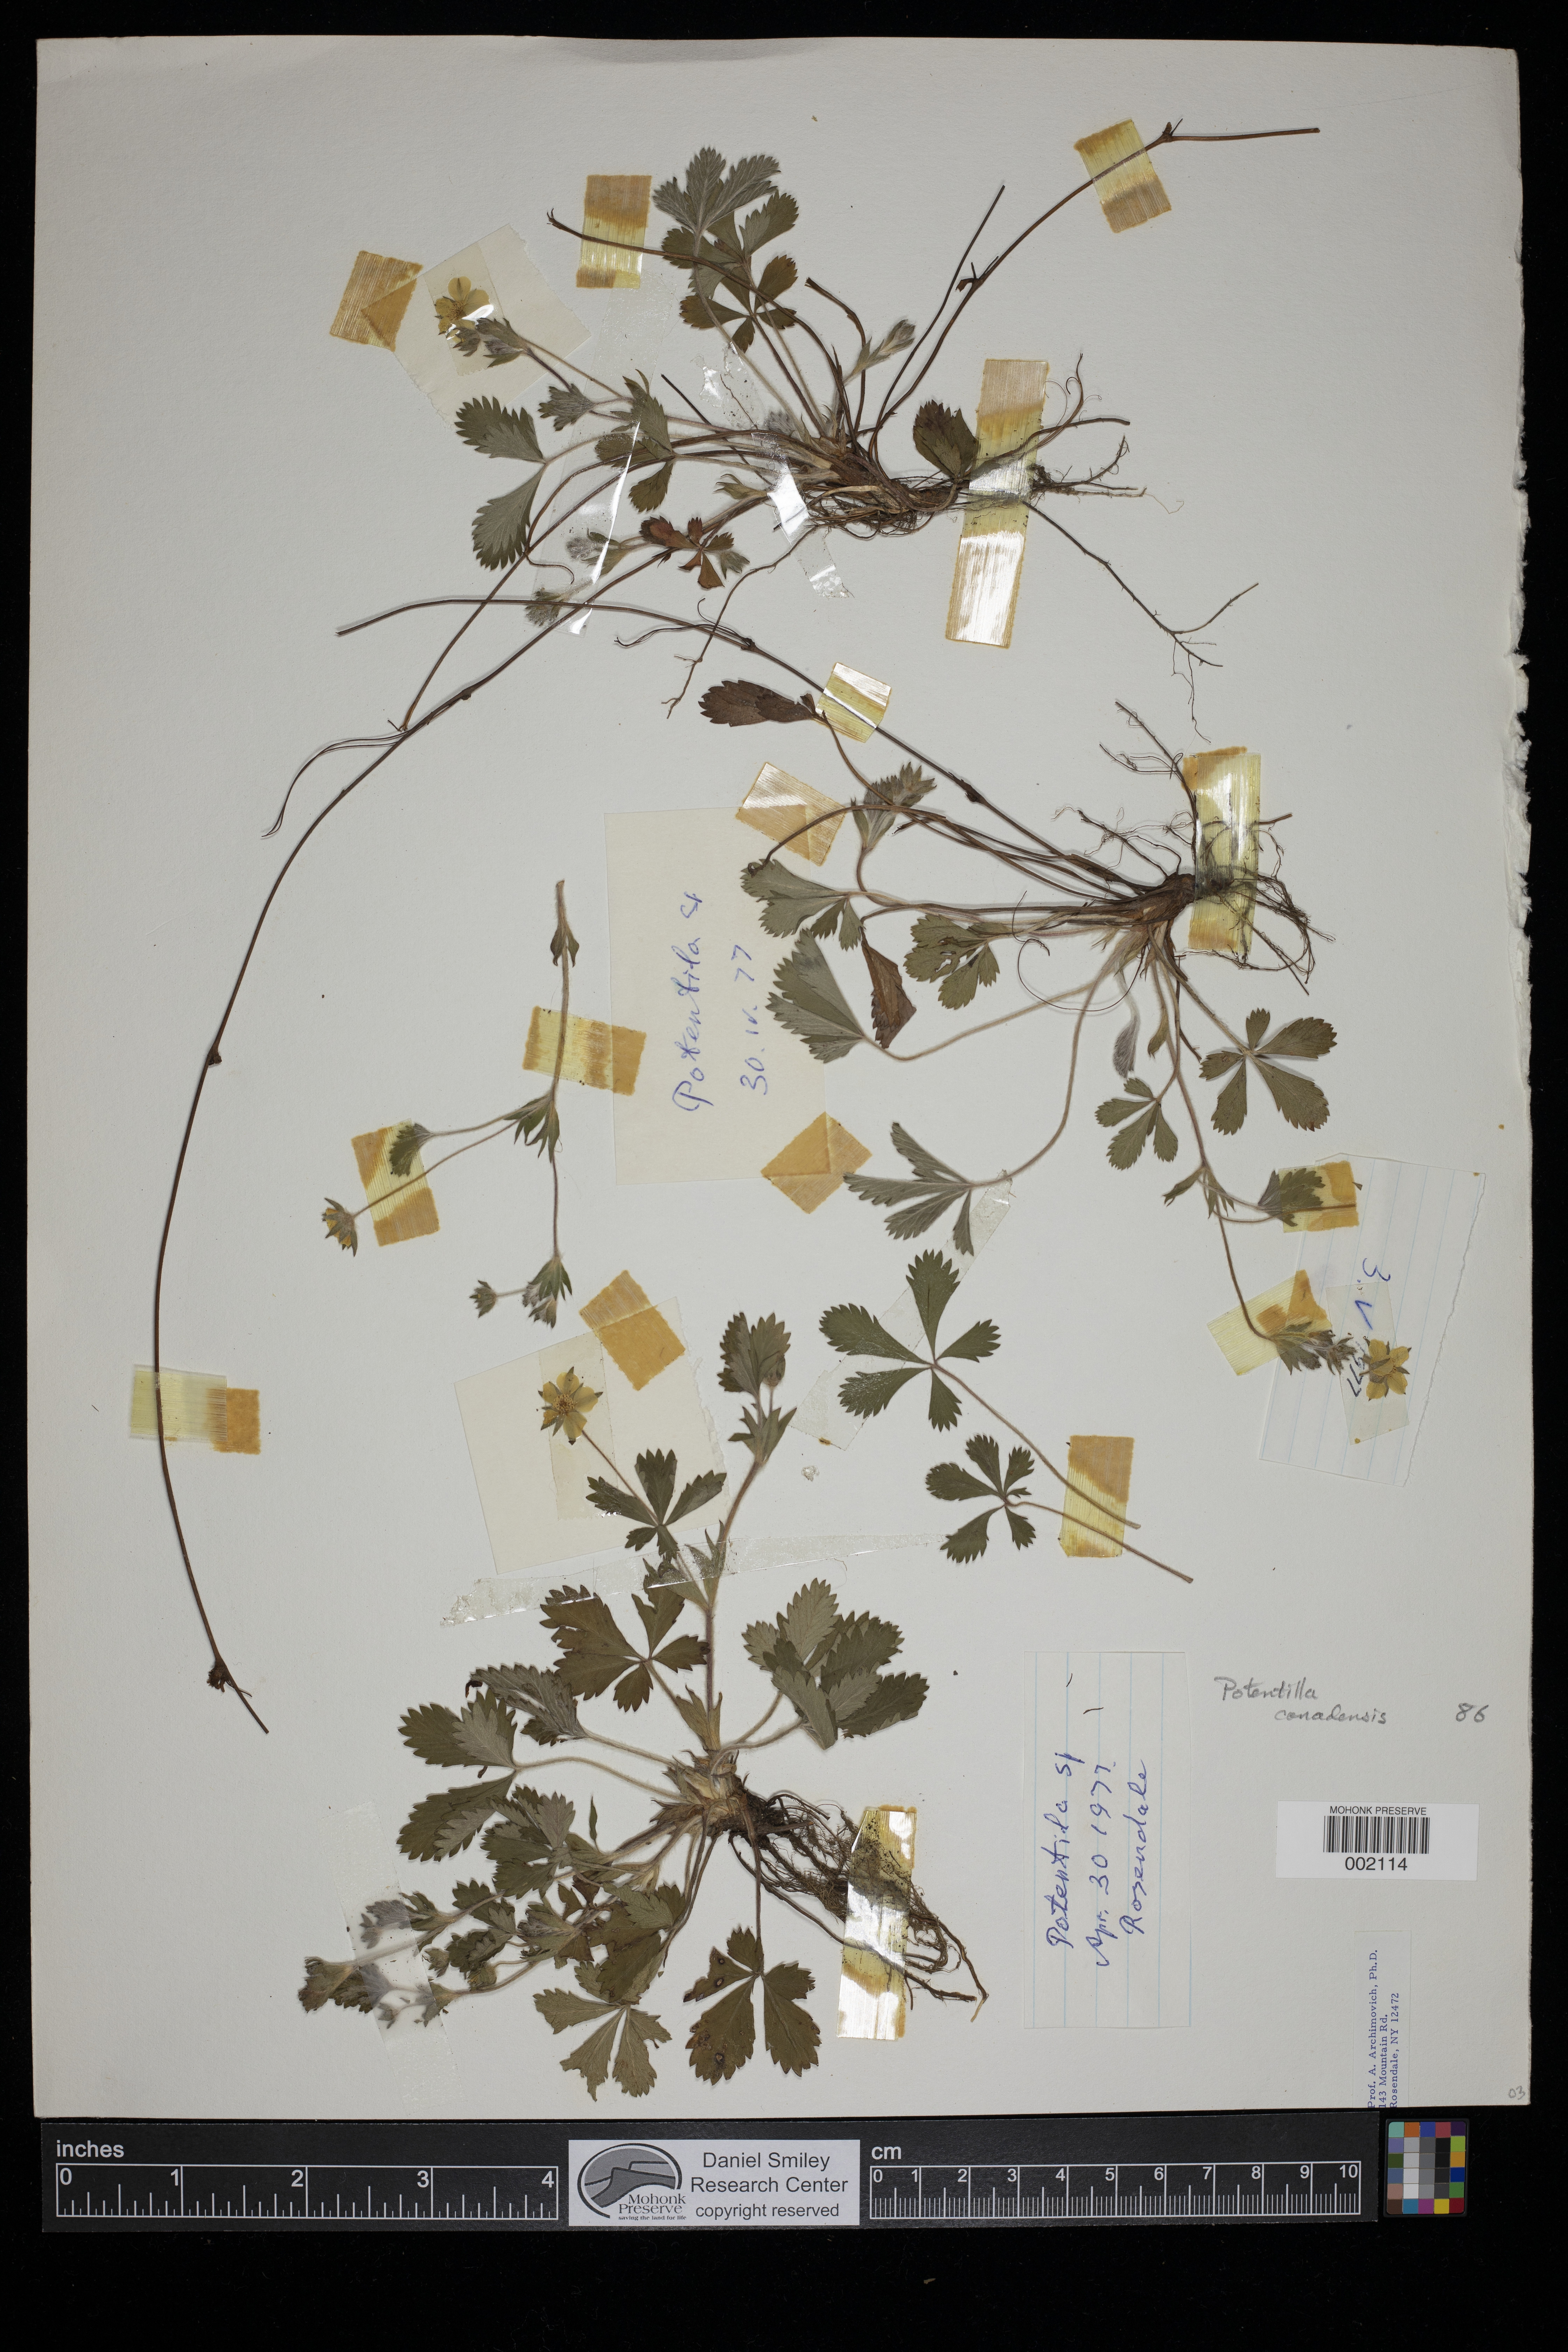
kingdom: Plantae
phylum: Tracheophyta
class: Magnoliopsida
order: Rosales
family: Rosaceae
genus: Potentilla
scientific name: Potentilla canadensis
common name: Canada cinquefoil
